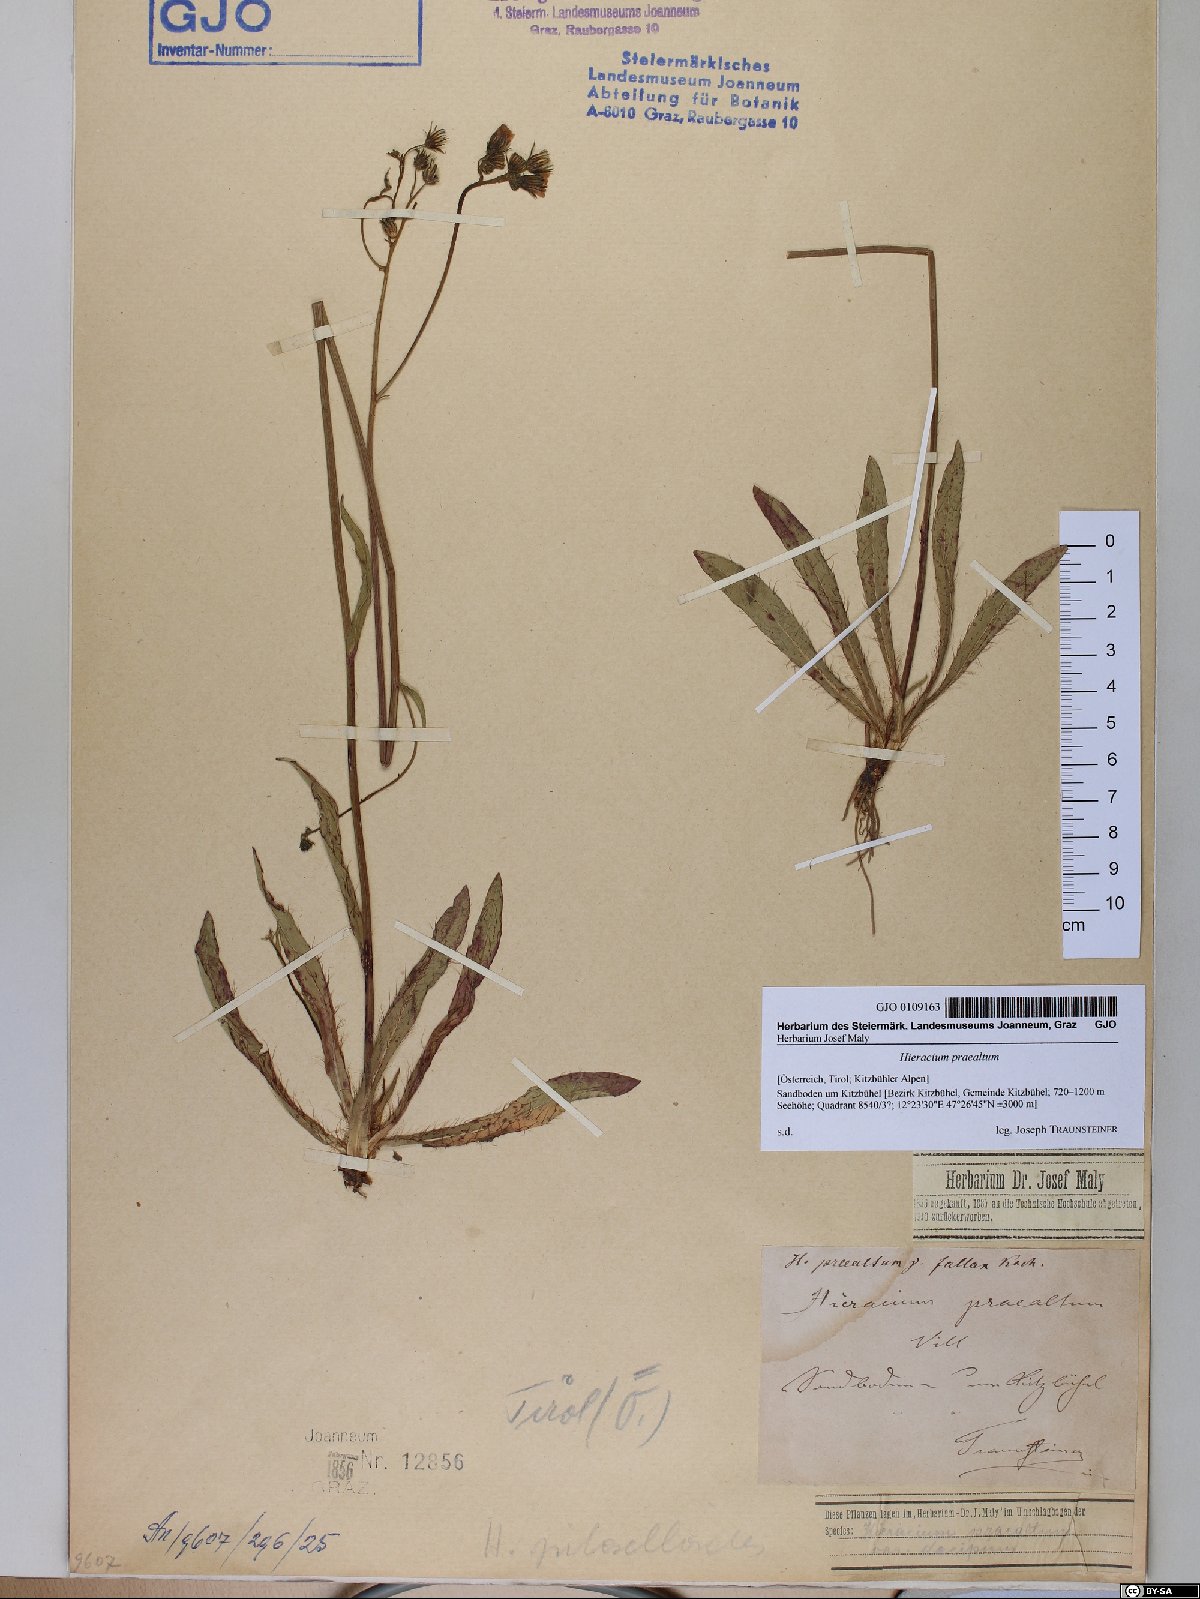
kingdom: Plantae
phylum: Tracheophyta
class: Magnoliopsida
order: Asterales
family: Asteraceae
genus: Pilosella
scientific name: Pilosella piloselloides
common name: Glaucous king-devil
